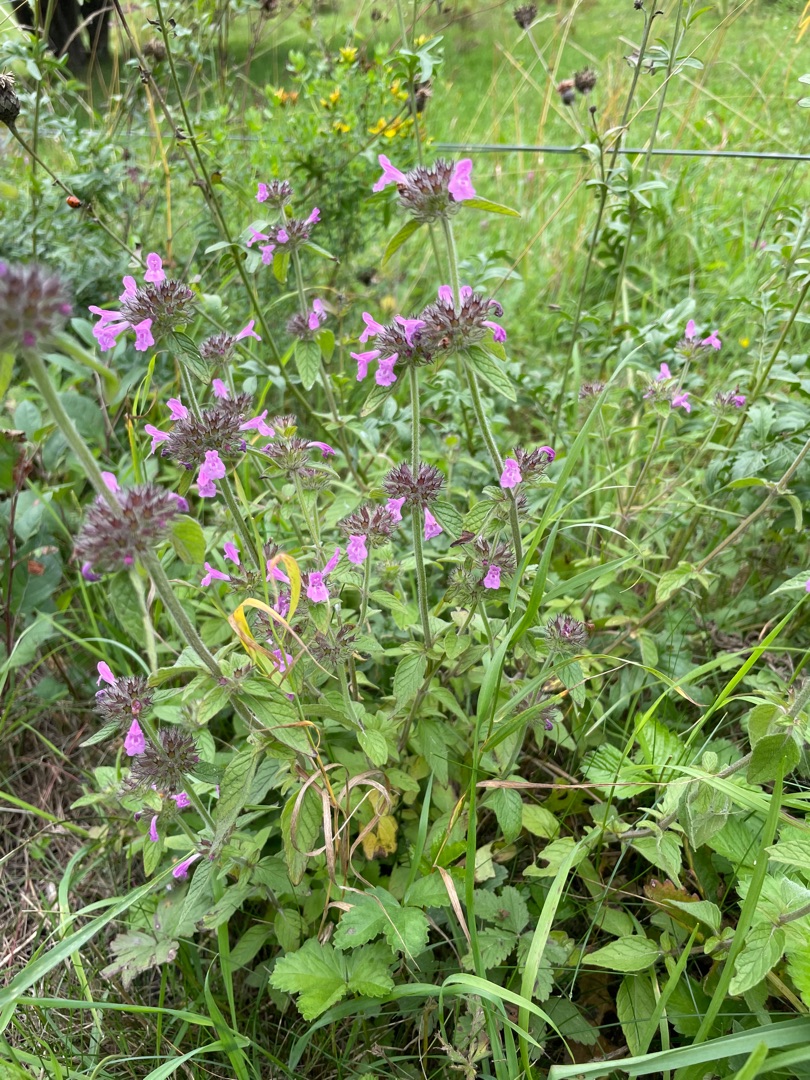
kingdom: Plantae
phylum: Tracheophyta
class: Magnoliopsida
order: Lamiales
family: Lamiaceae
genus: Clinopodium
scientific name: Clinopodium vulgare
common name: Kransbørste
